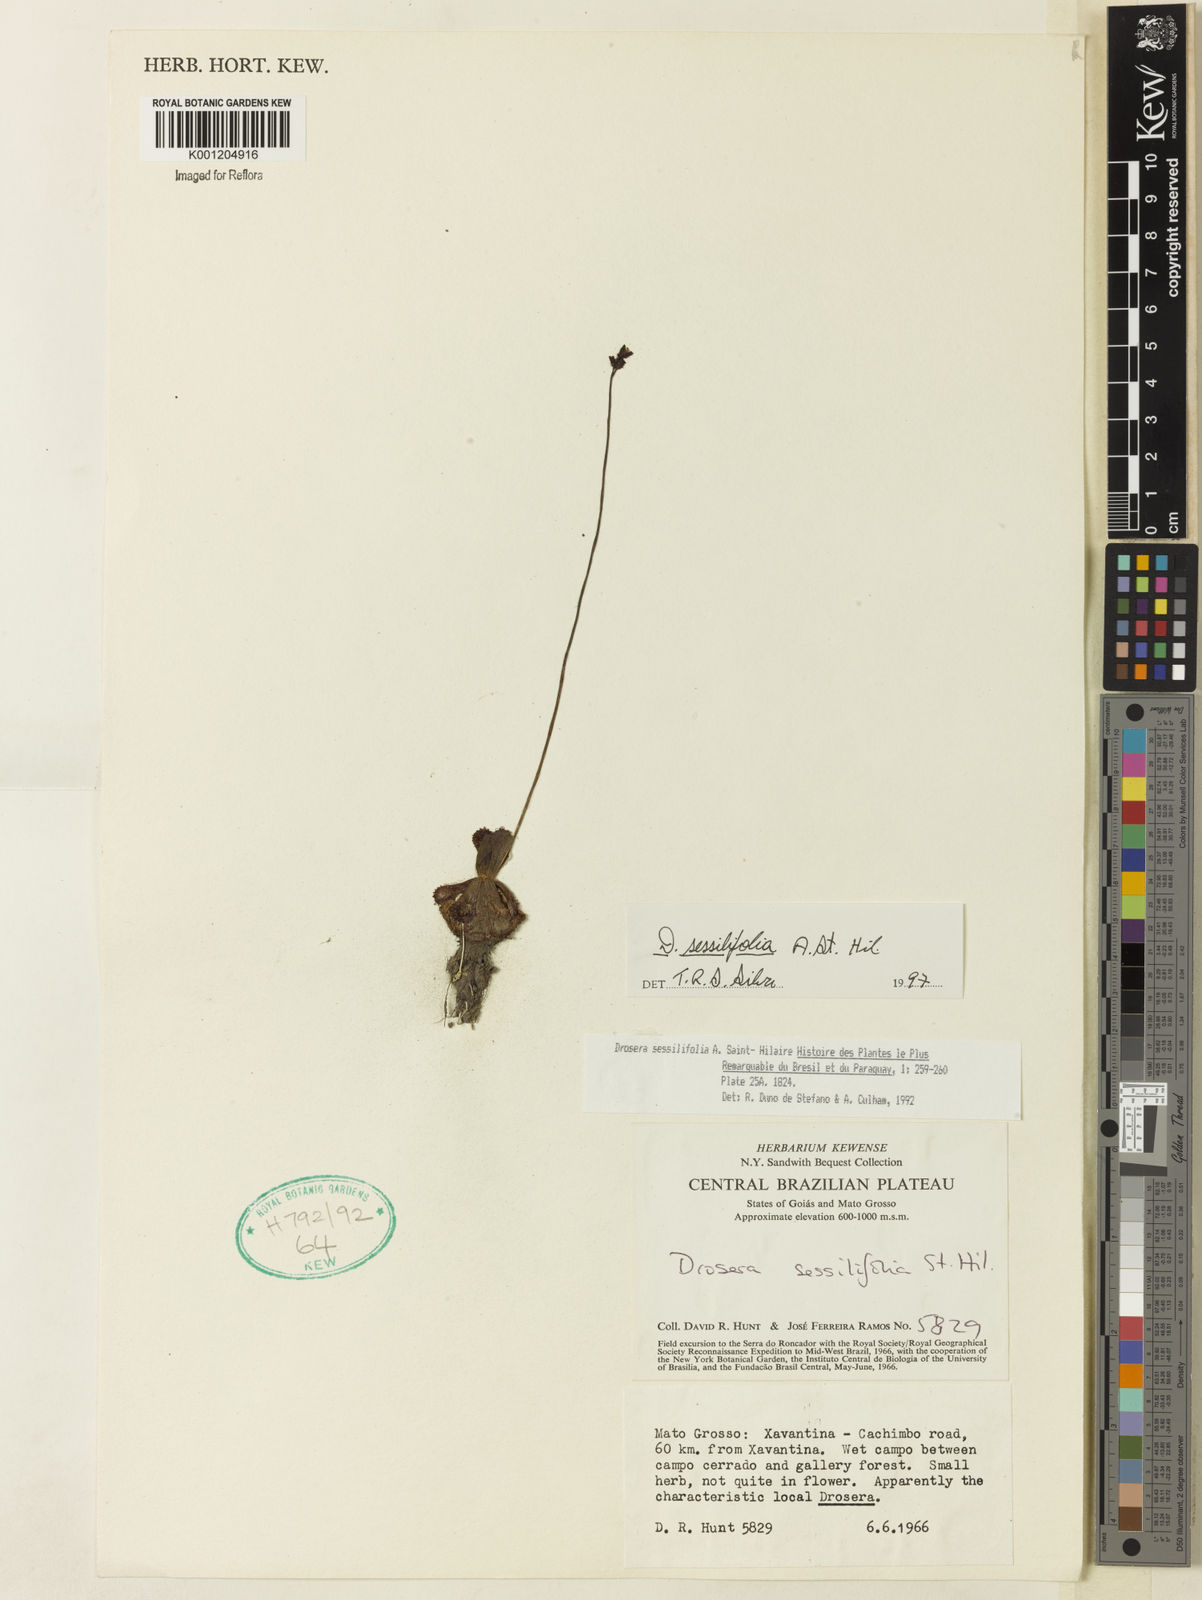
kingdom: Plantae
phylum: Tracheophyta
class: Magnoliopsida
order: Caryophyllales
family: Droseraceae
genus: Drosera
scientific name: Drosera sessilifolia
